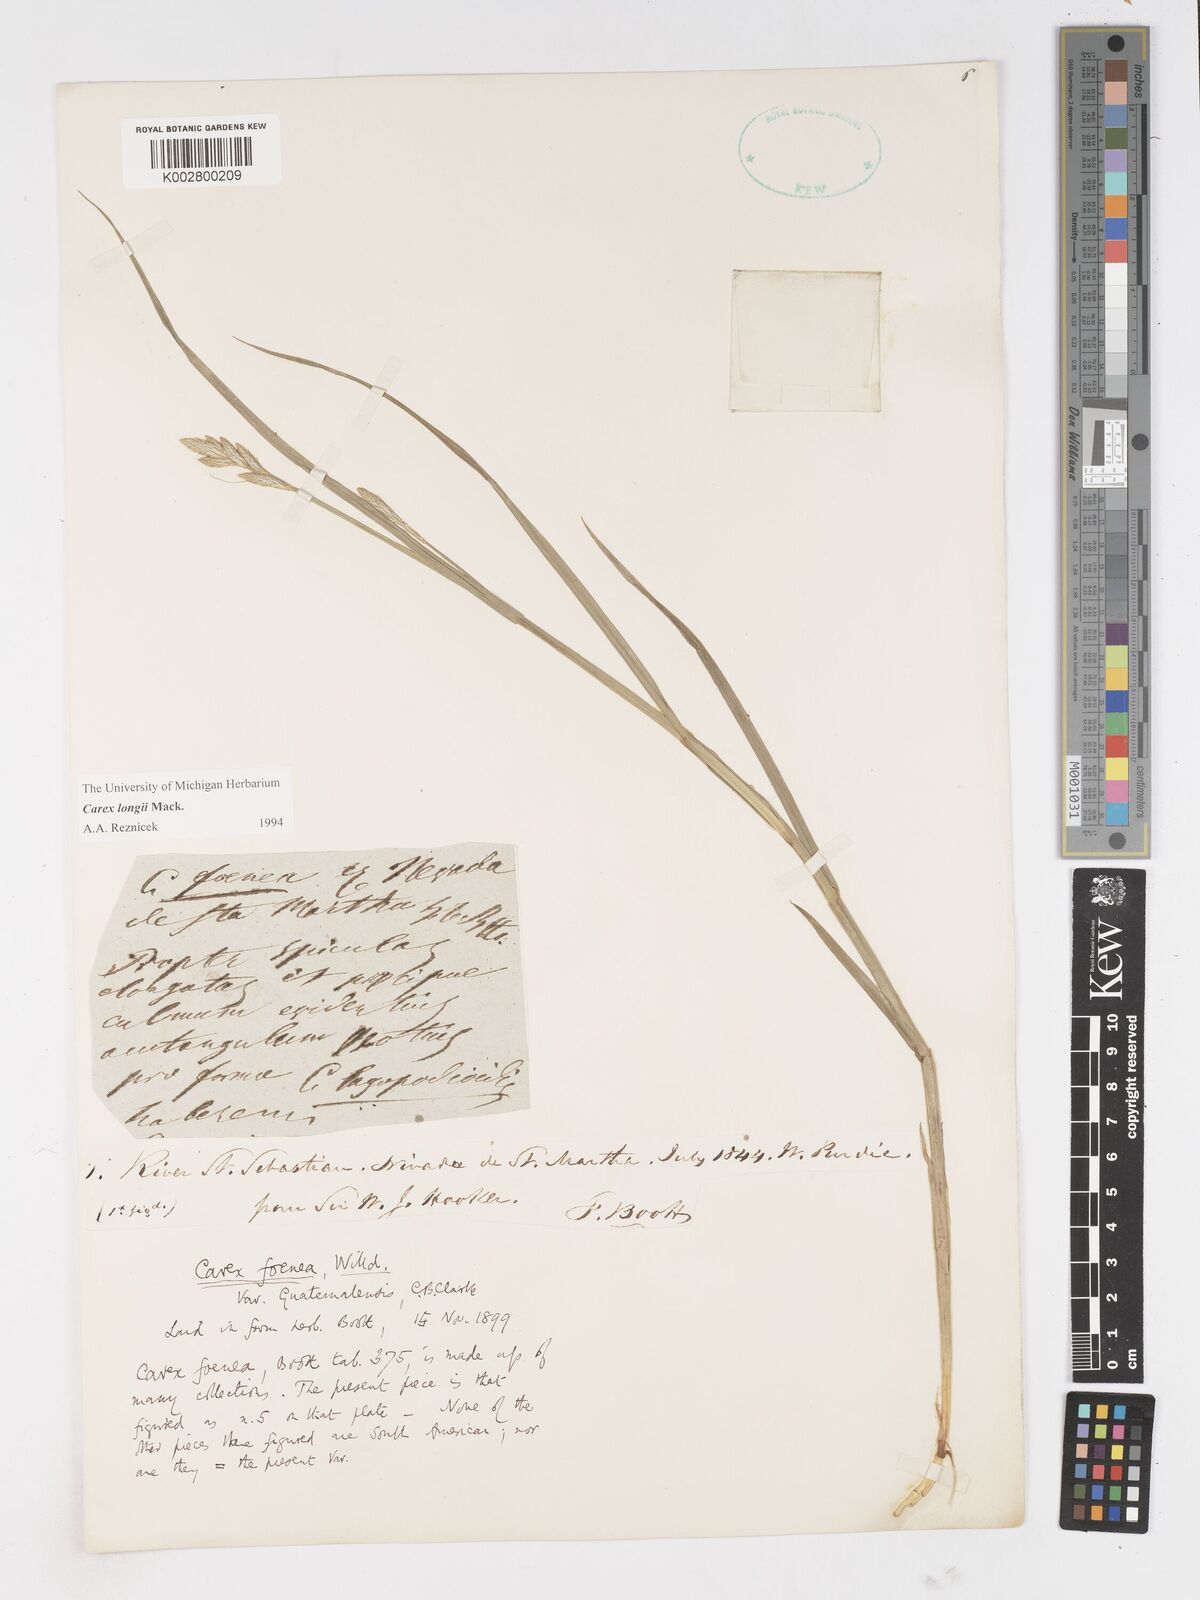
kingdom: Plantae
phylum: Tracheophyta
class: Liliopsida
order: Poales
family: Cyperaceae
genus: Carex
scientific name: Carex longii
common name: Long's sedge
